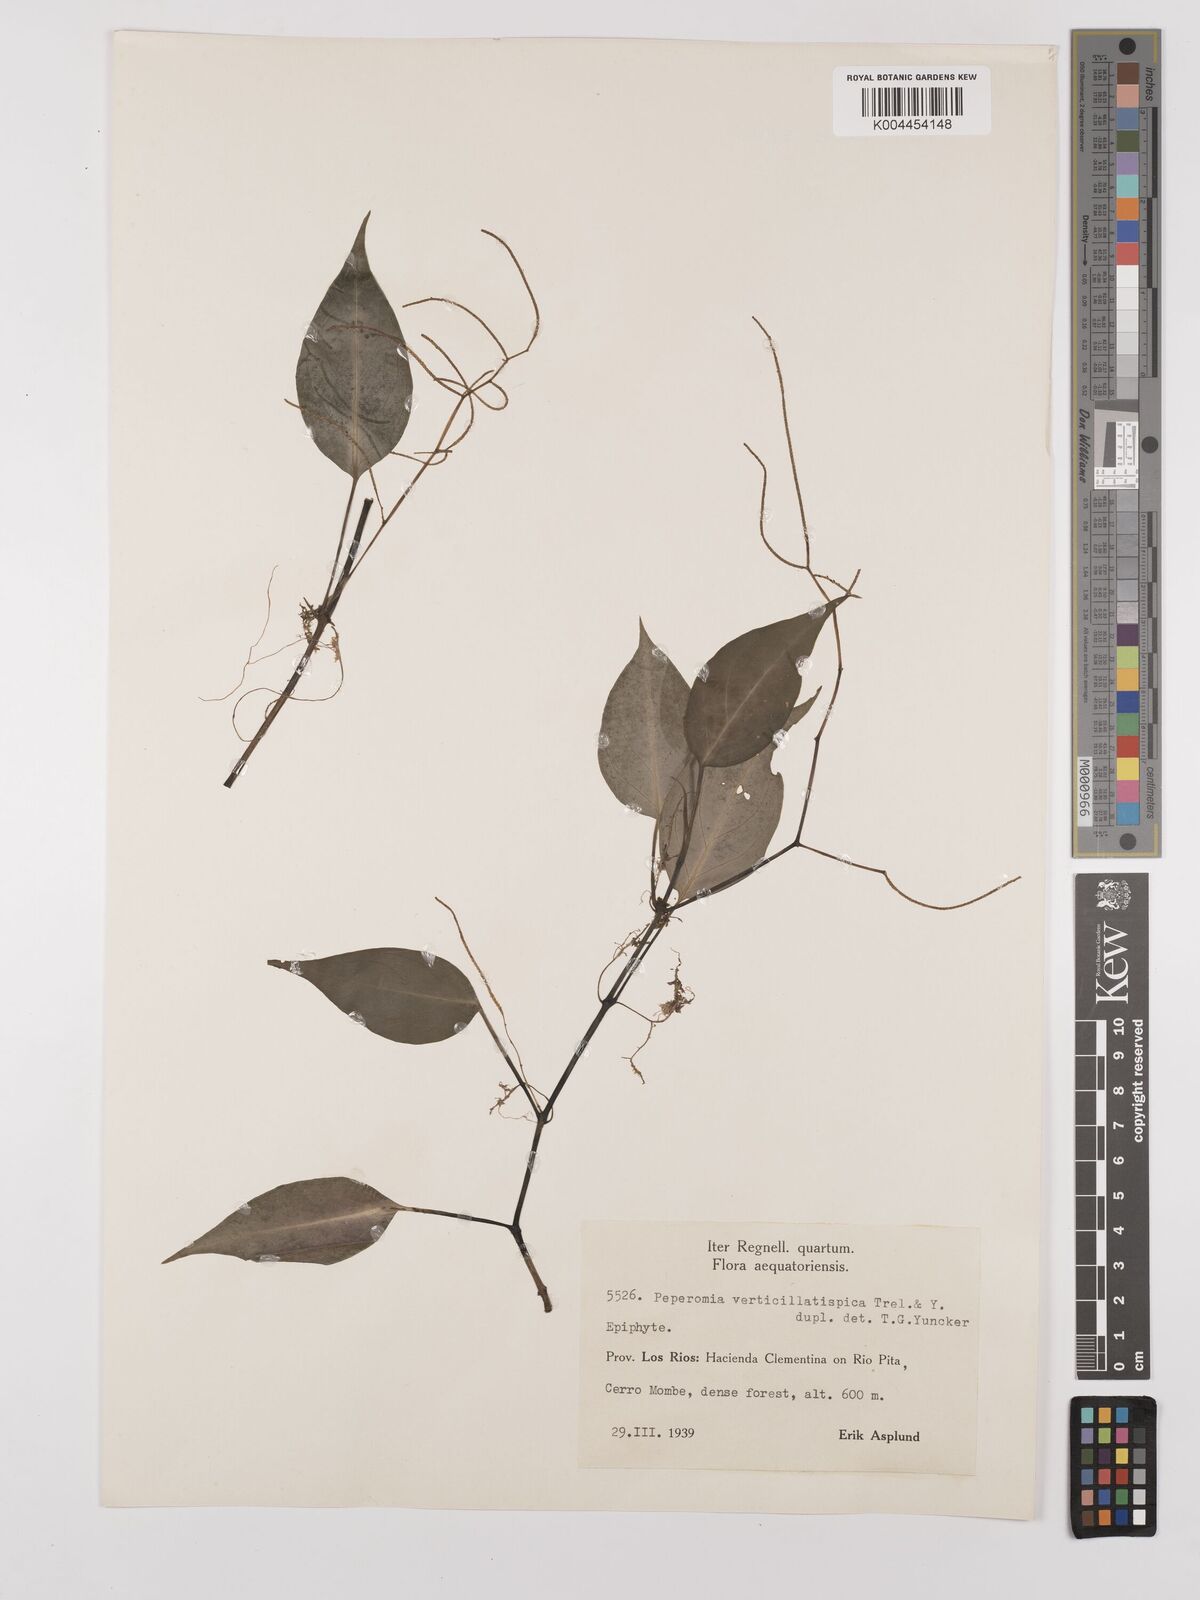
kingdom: Plantae
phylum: Tracheophyta
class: Magnoliopsida
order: Piperales
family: Piperaceae
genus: Peperomia
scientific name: Peperomia verticillatispica
